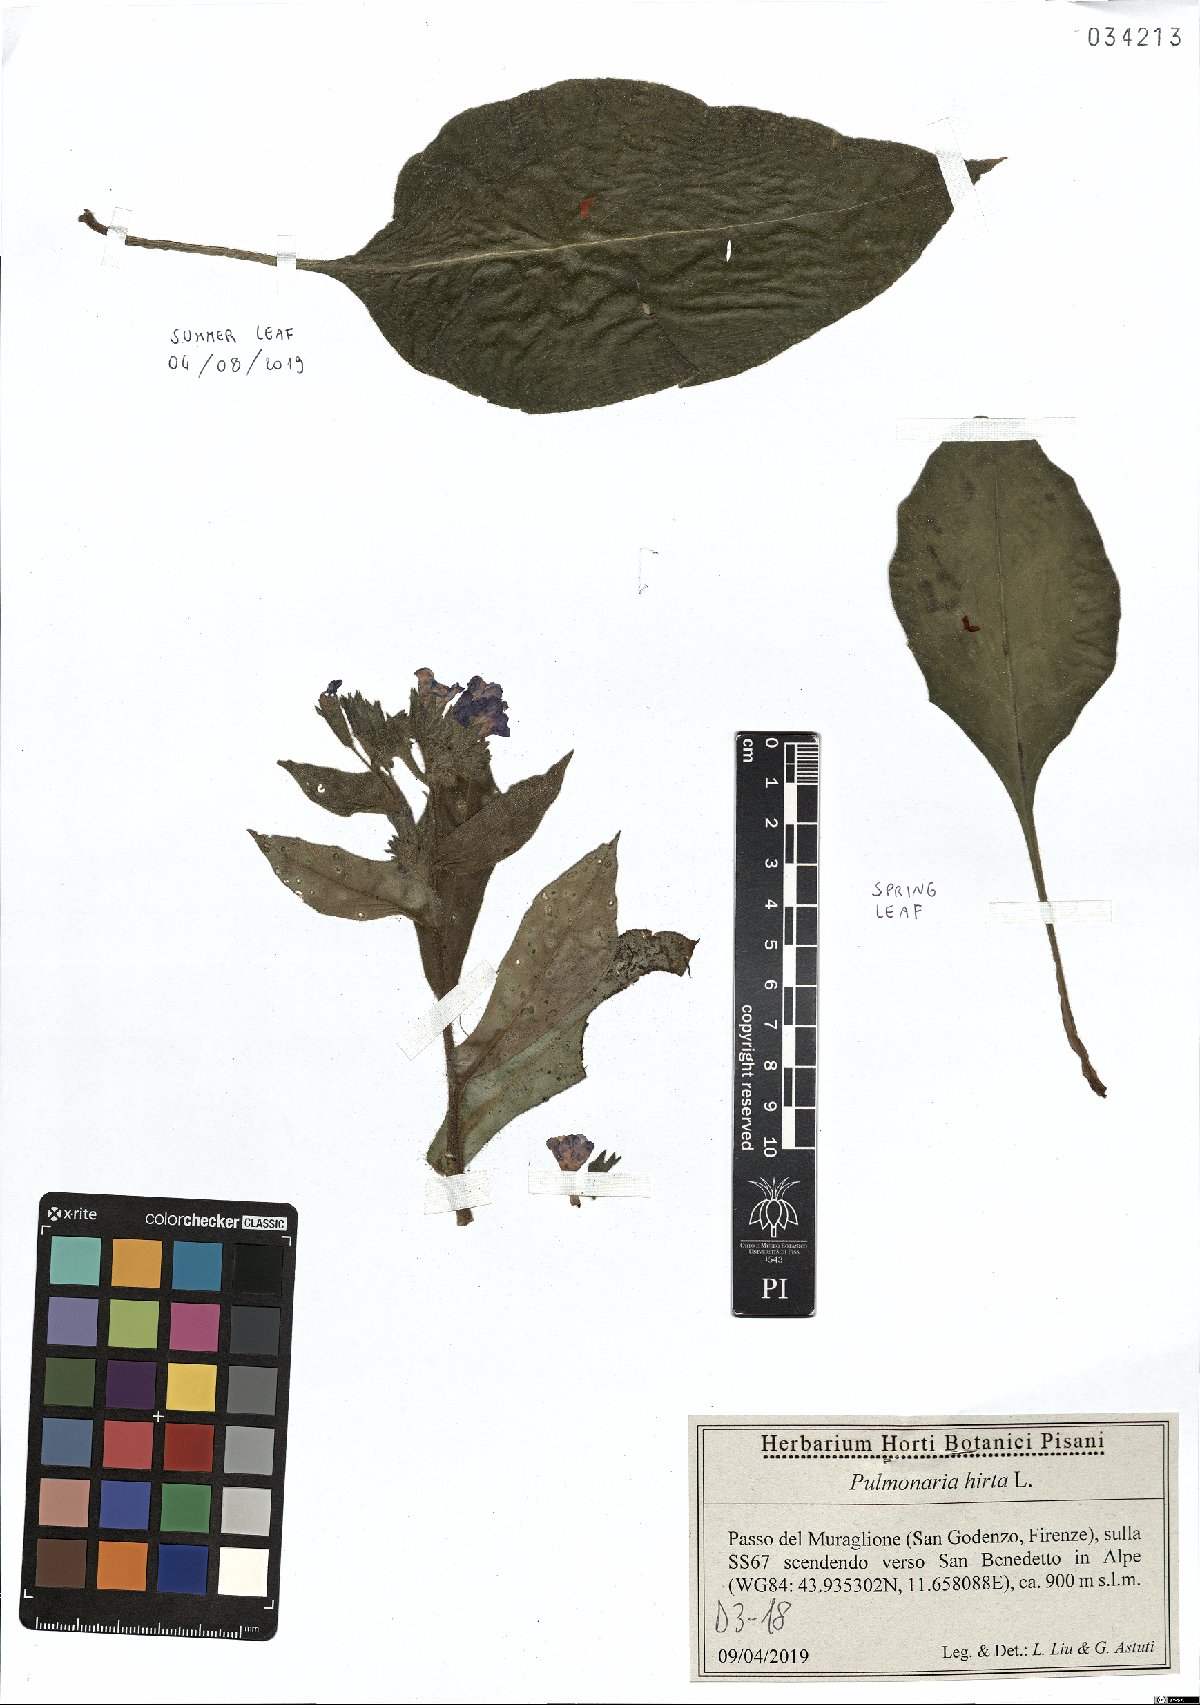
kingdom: Plantae
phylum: Tracheophyta
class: Magnoliopsida
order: Boraginales
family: Boraginaceae
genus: Pulmonaria
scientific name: Pulmonaria hirta
